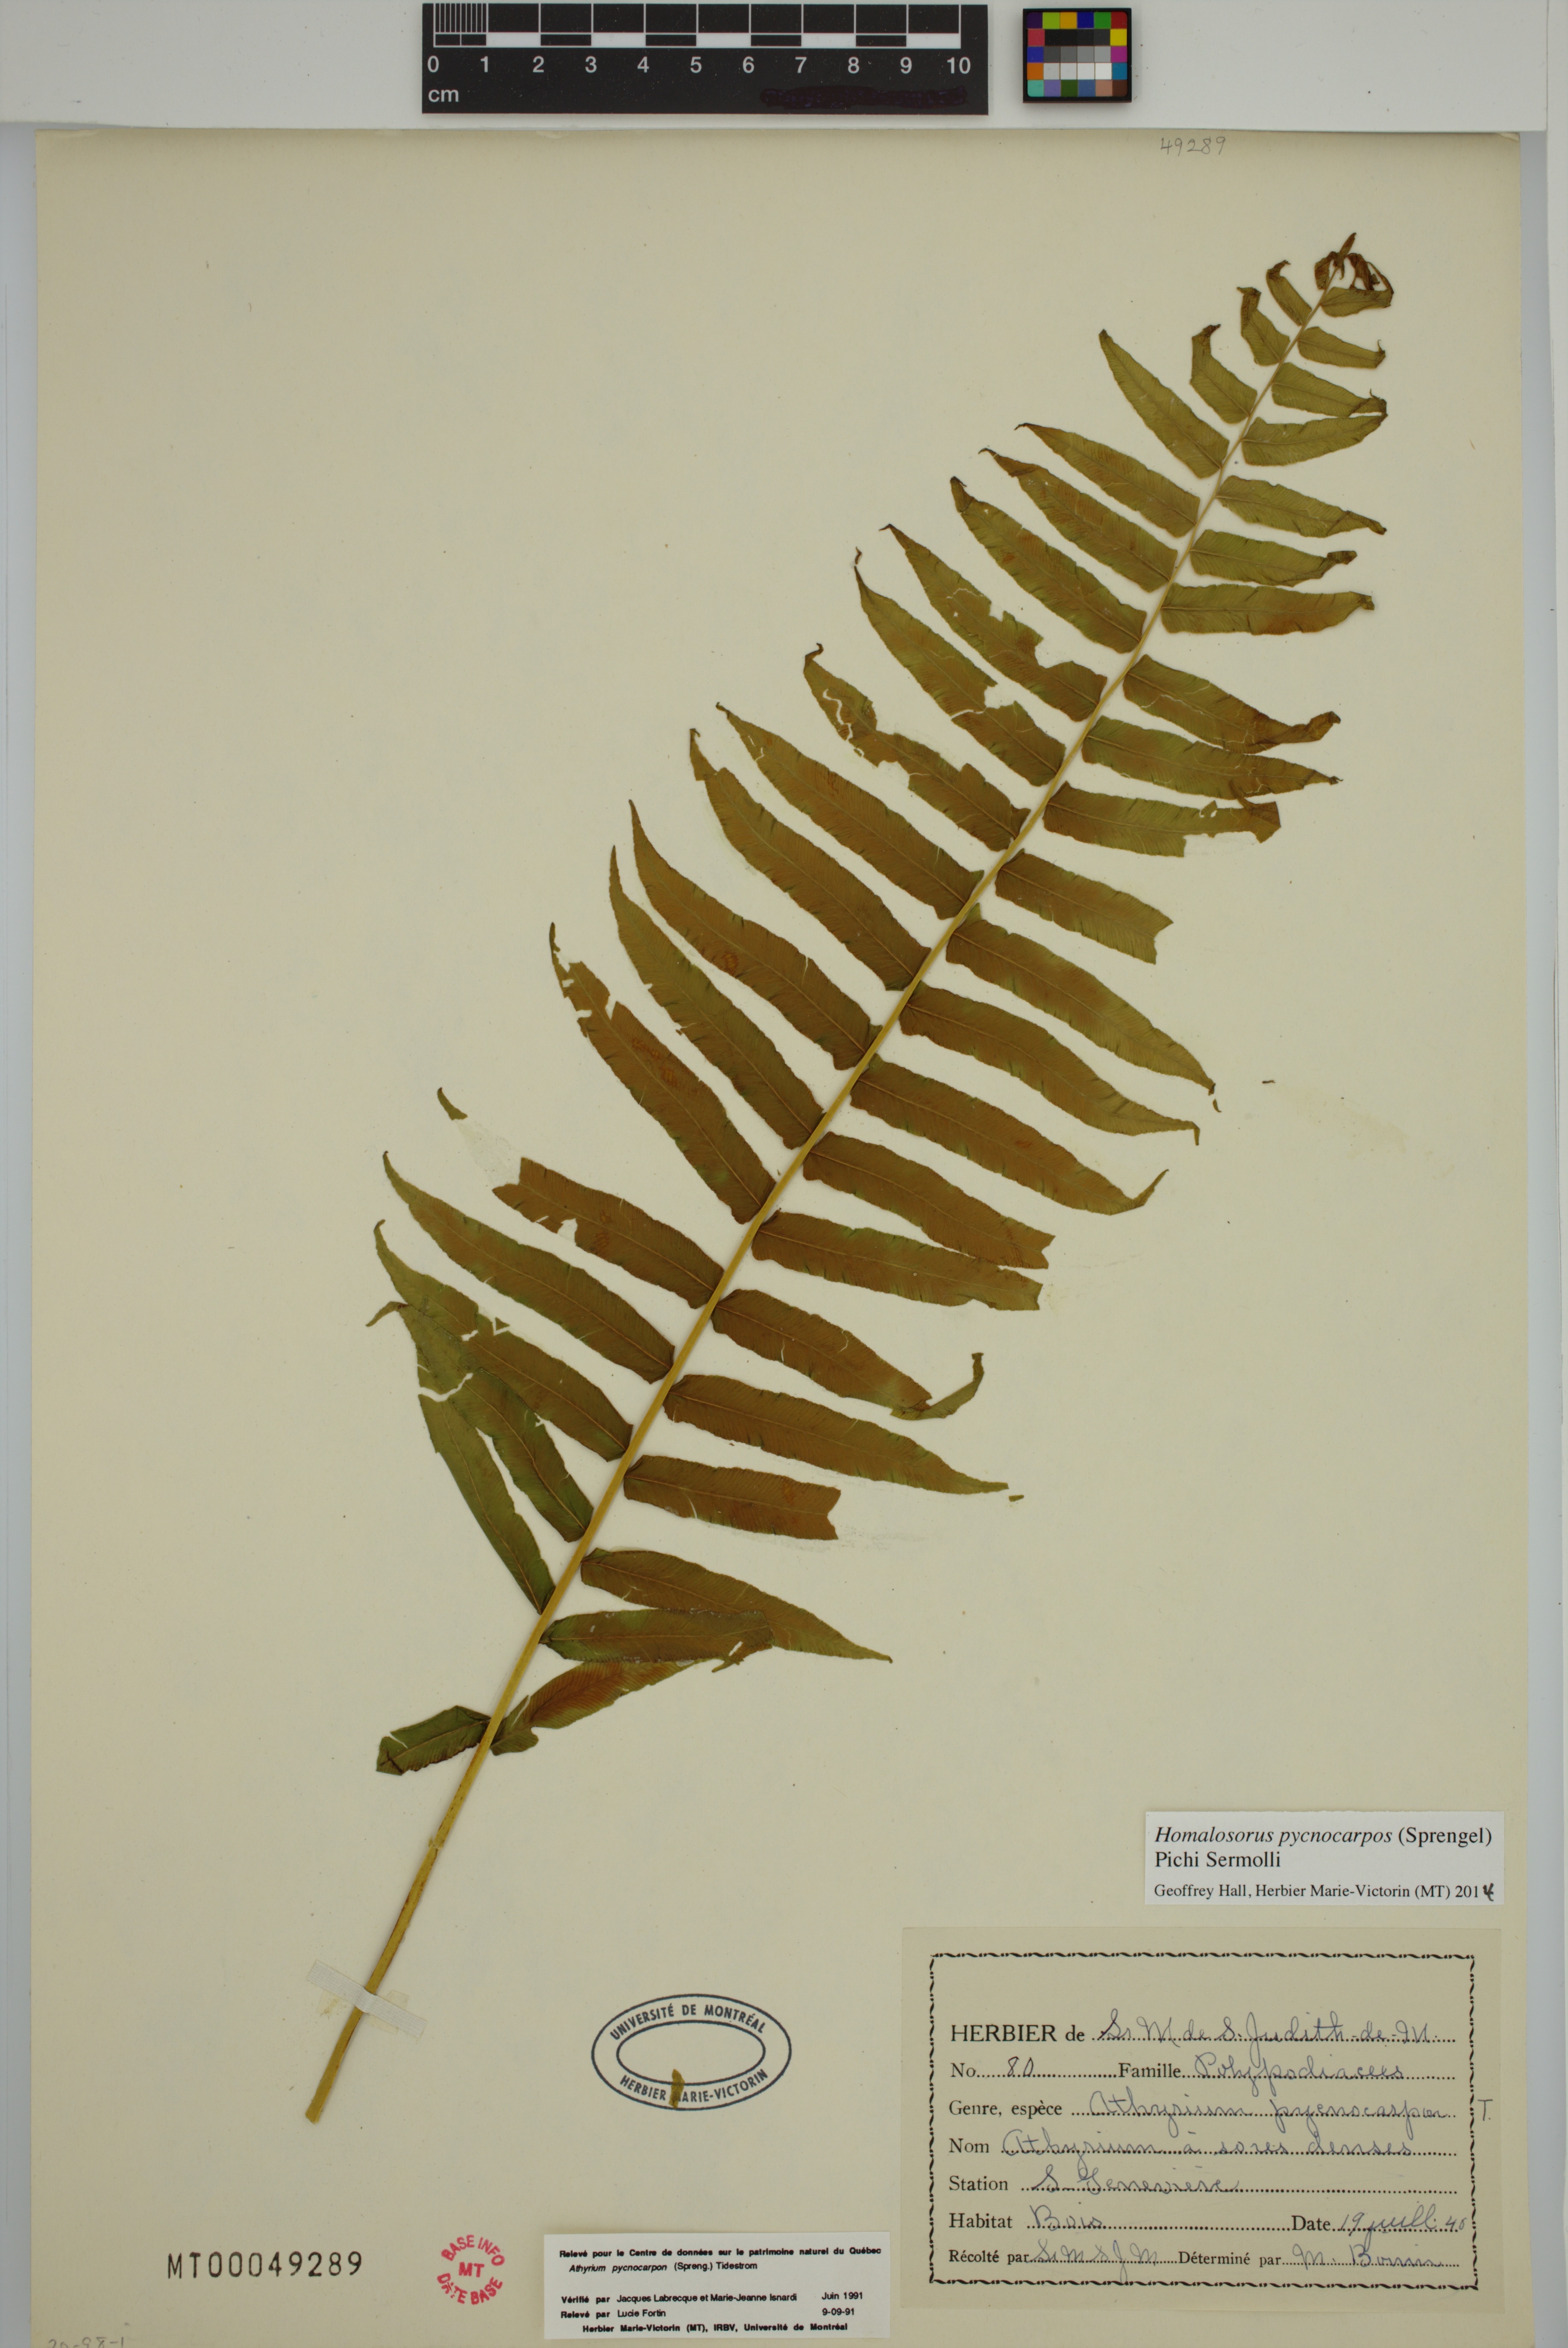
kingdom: Plantae
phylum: Tracheophyta
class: Polypodiopsida
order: Polypodiales
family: Diplaziopsidaceae
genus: Homalosorus
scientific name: Homalosorus pycnocarpos
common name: Glade fern
